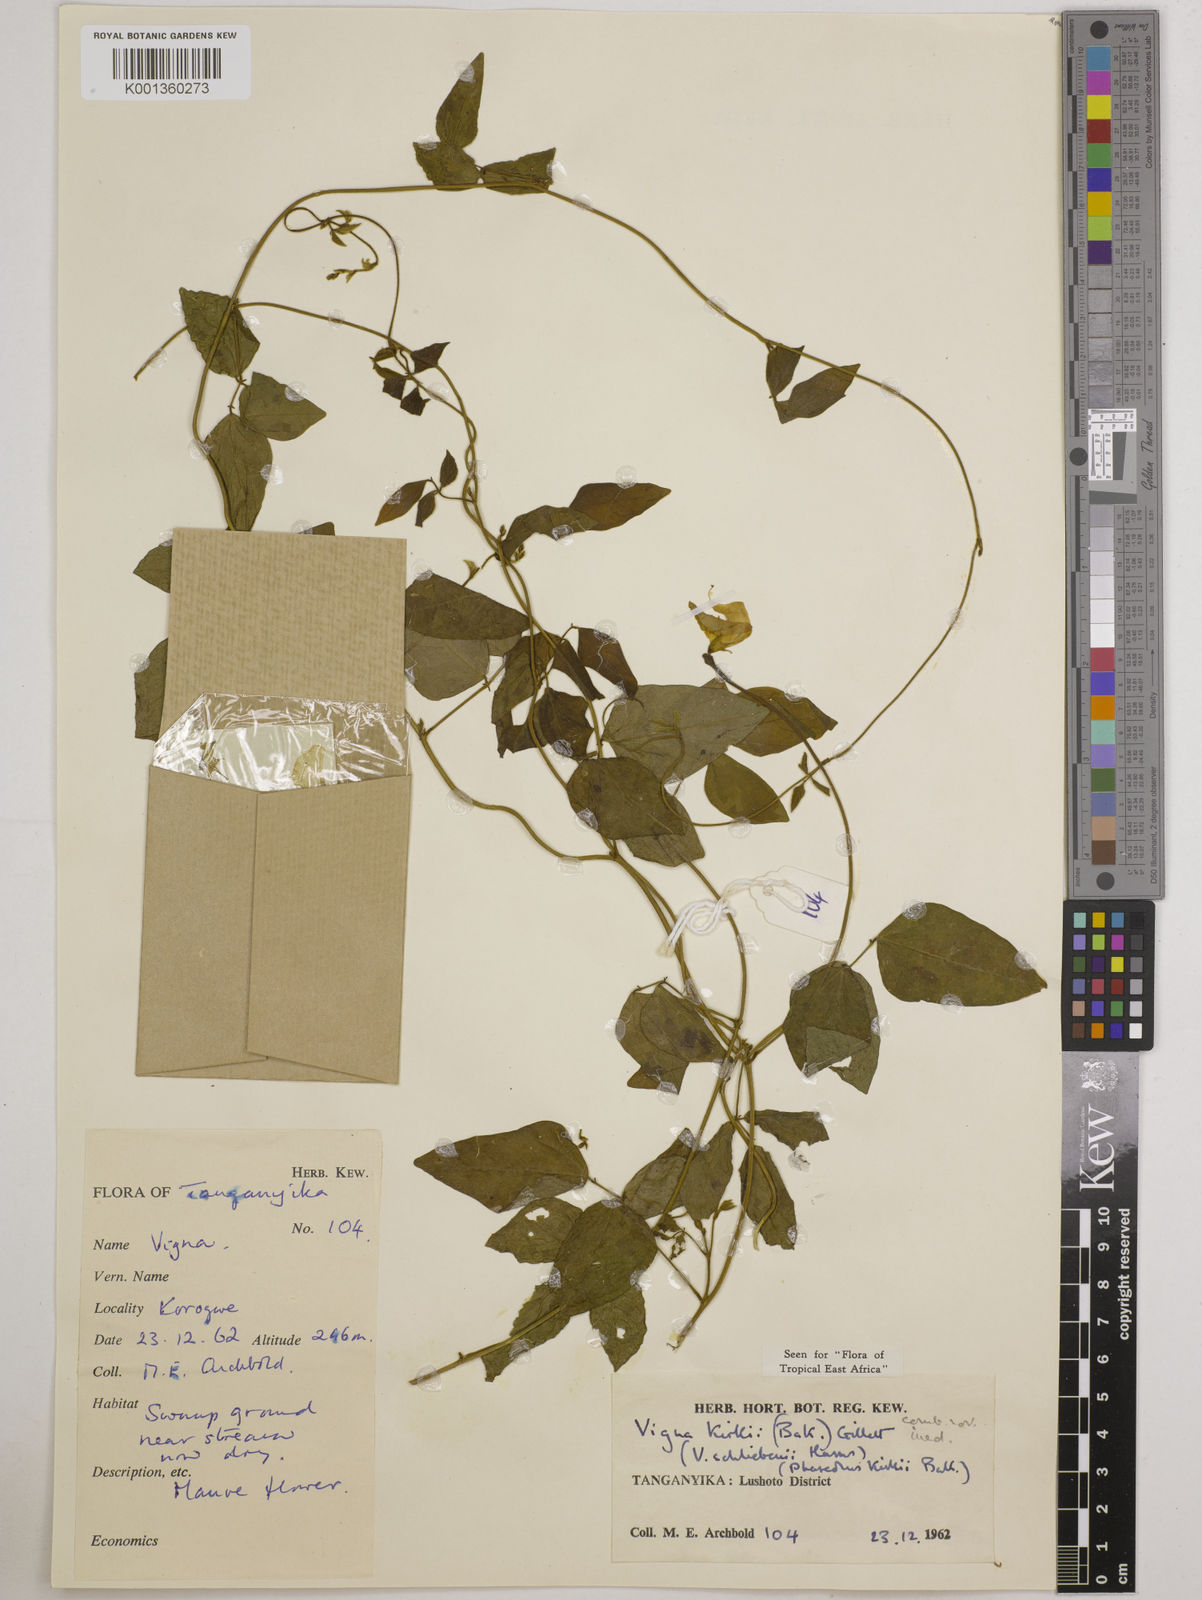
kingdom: Plantae
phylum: Tracheophyta
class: Magnoliopsida
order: Fabales
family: Fabaceae
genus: Vigna
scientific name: Vigna kirkii
